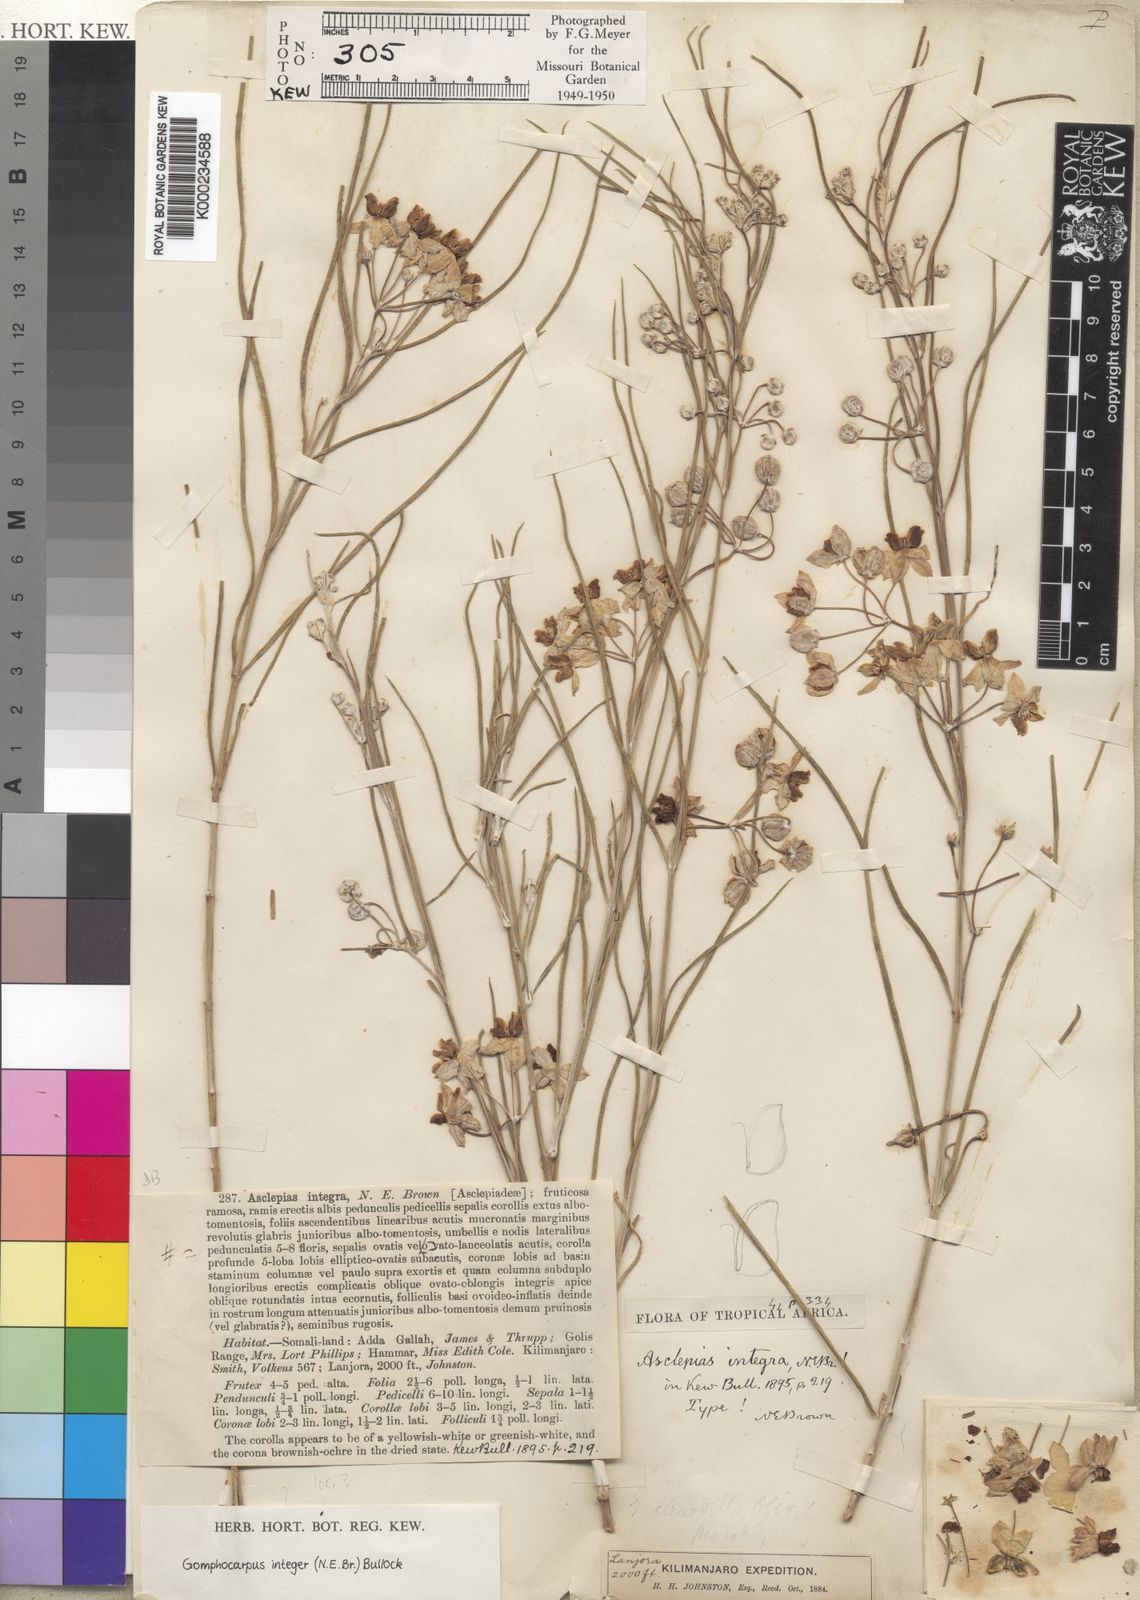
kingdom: Plantae
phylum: Tracheophyta
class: Magnoliopsida
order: Gentianales
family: Apocynaceae
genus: Gomphocarpus
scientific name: Gomphocarpus integer
